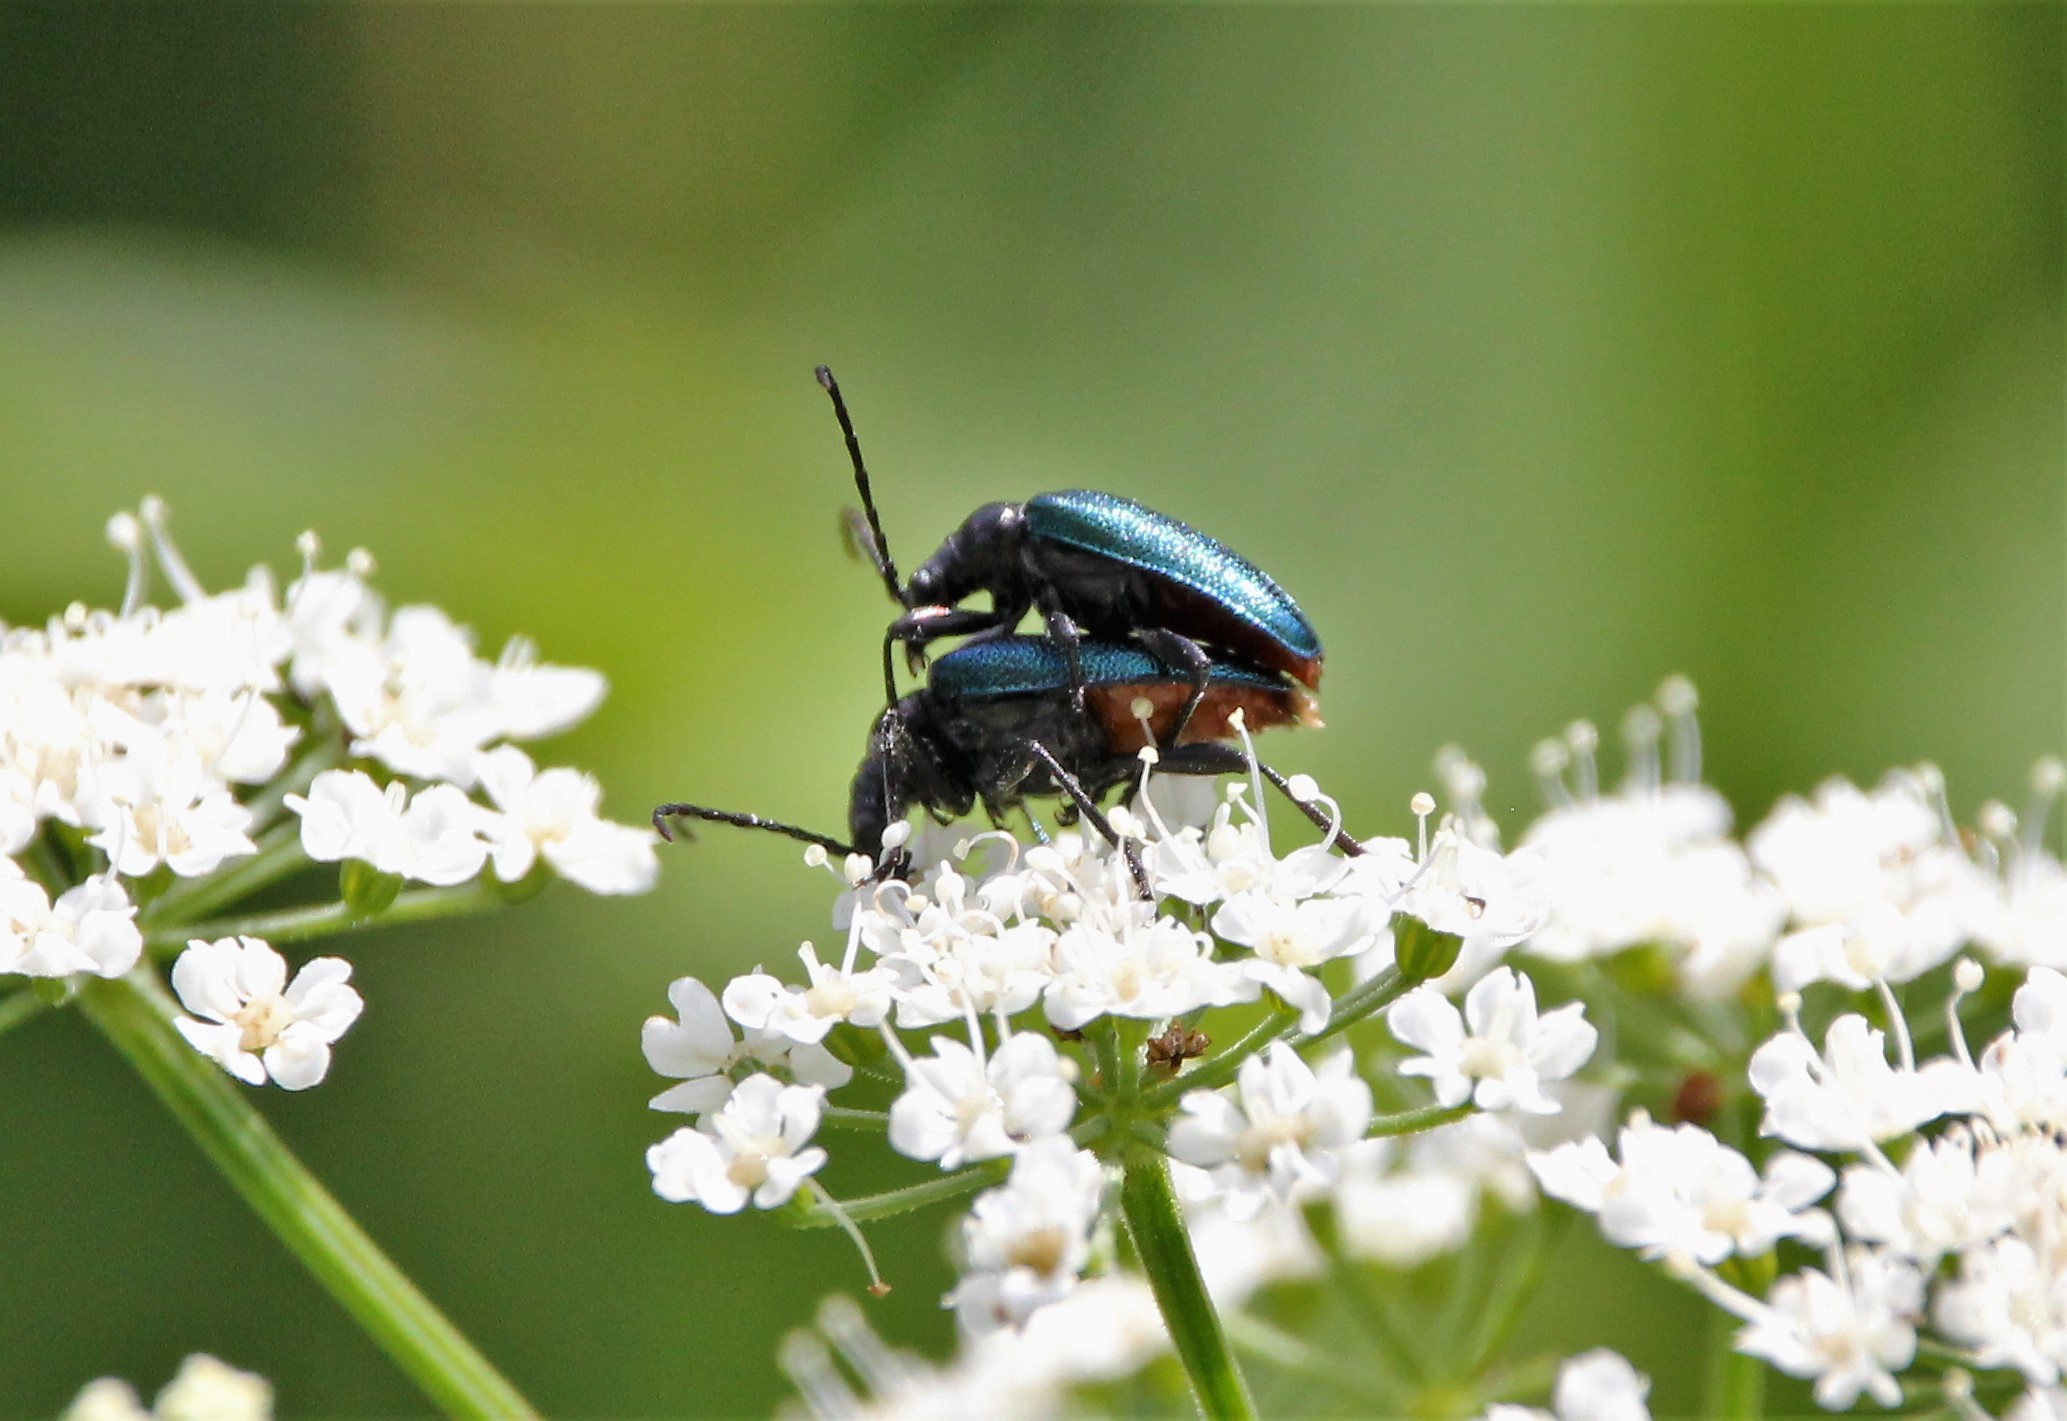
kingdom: Animalia
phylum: Arthropoda
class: Insecta
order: Coleoptera
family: Cerambycidae
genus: Gaurotes
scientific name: Gaurotes virginea
